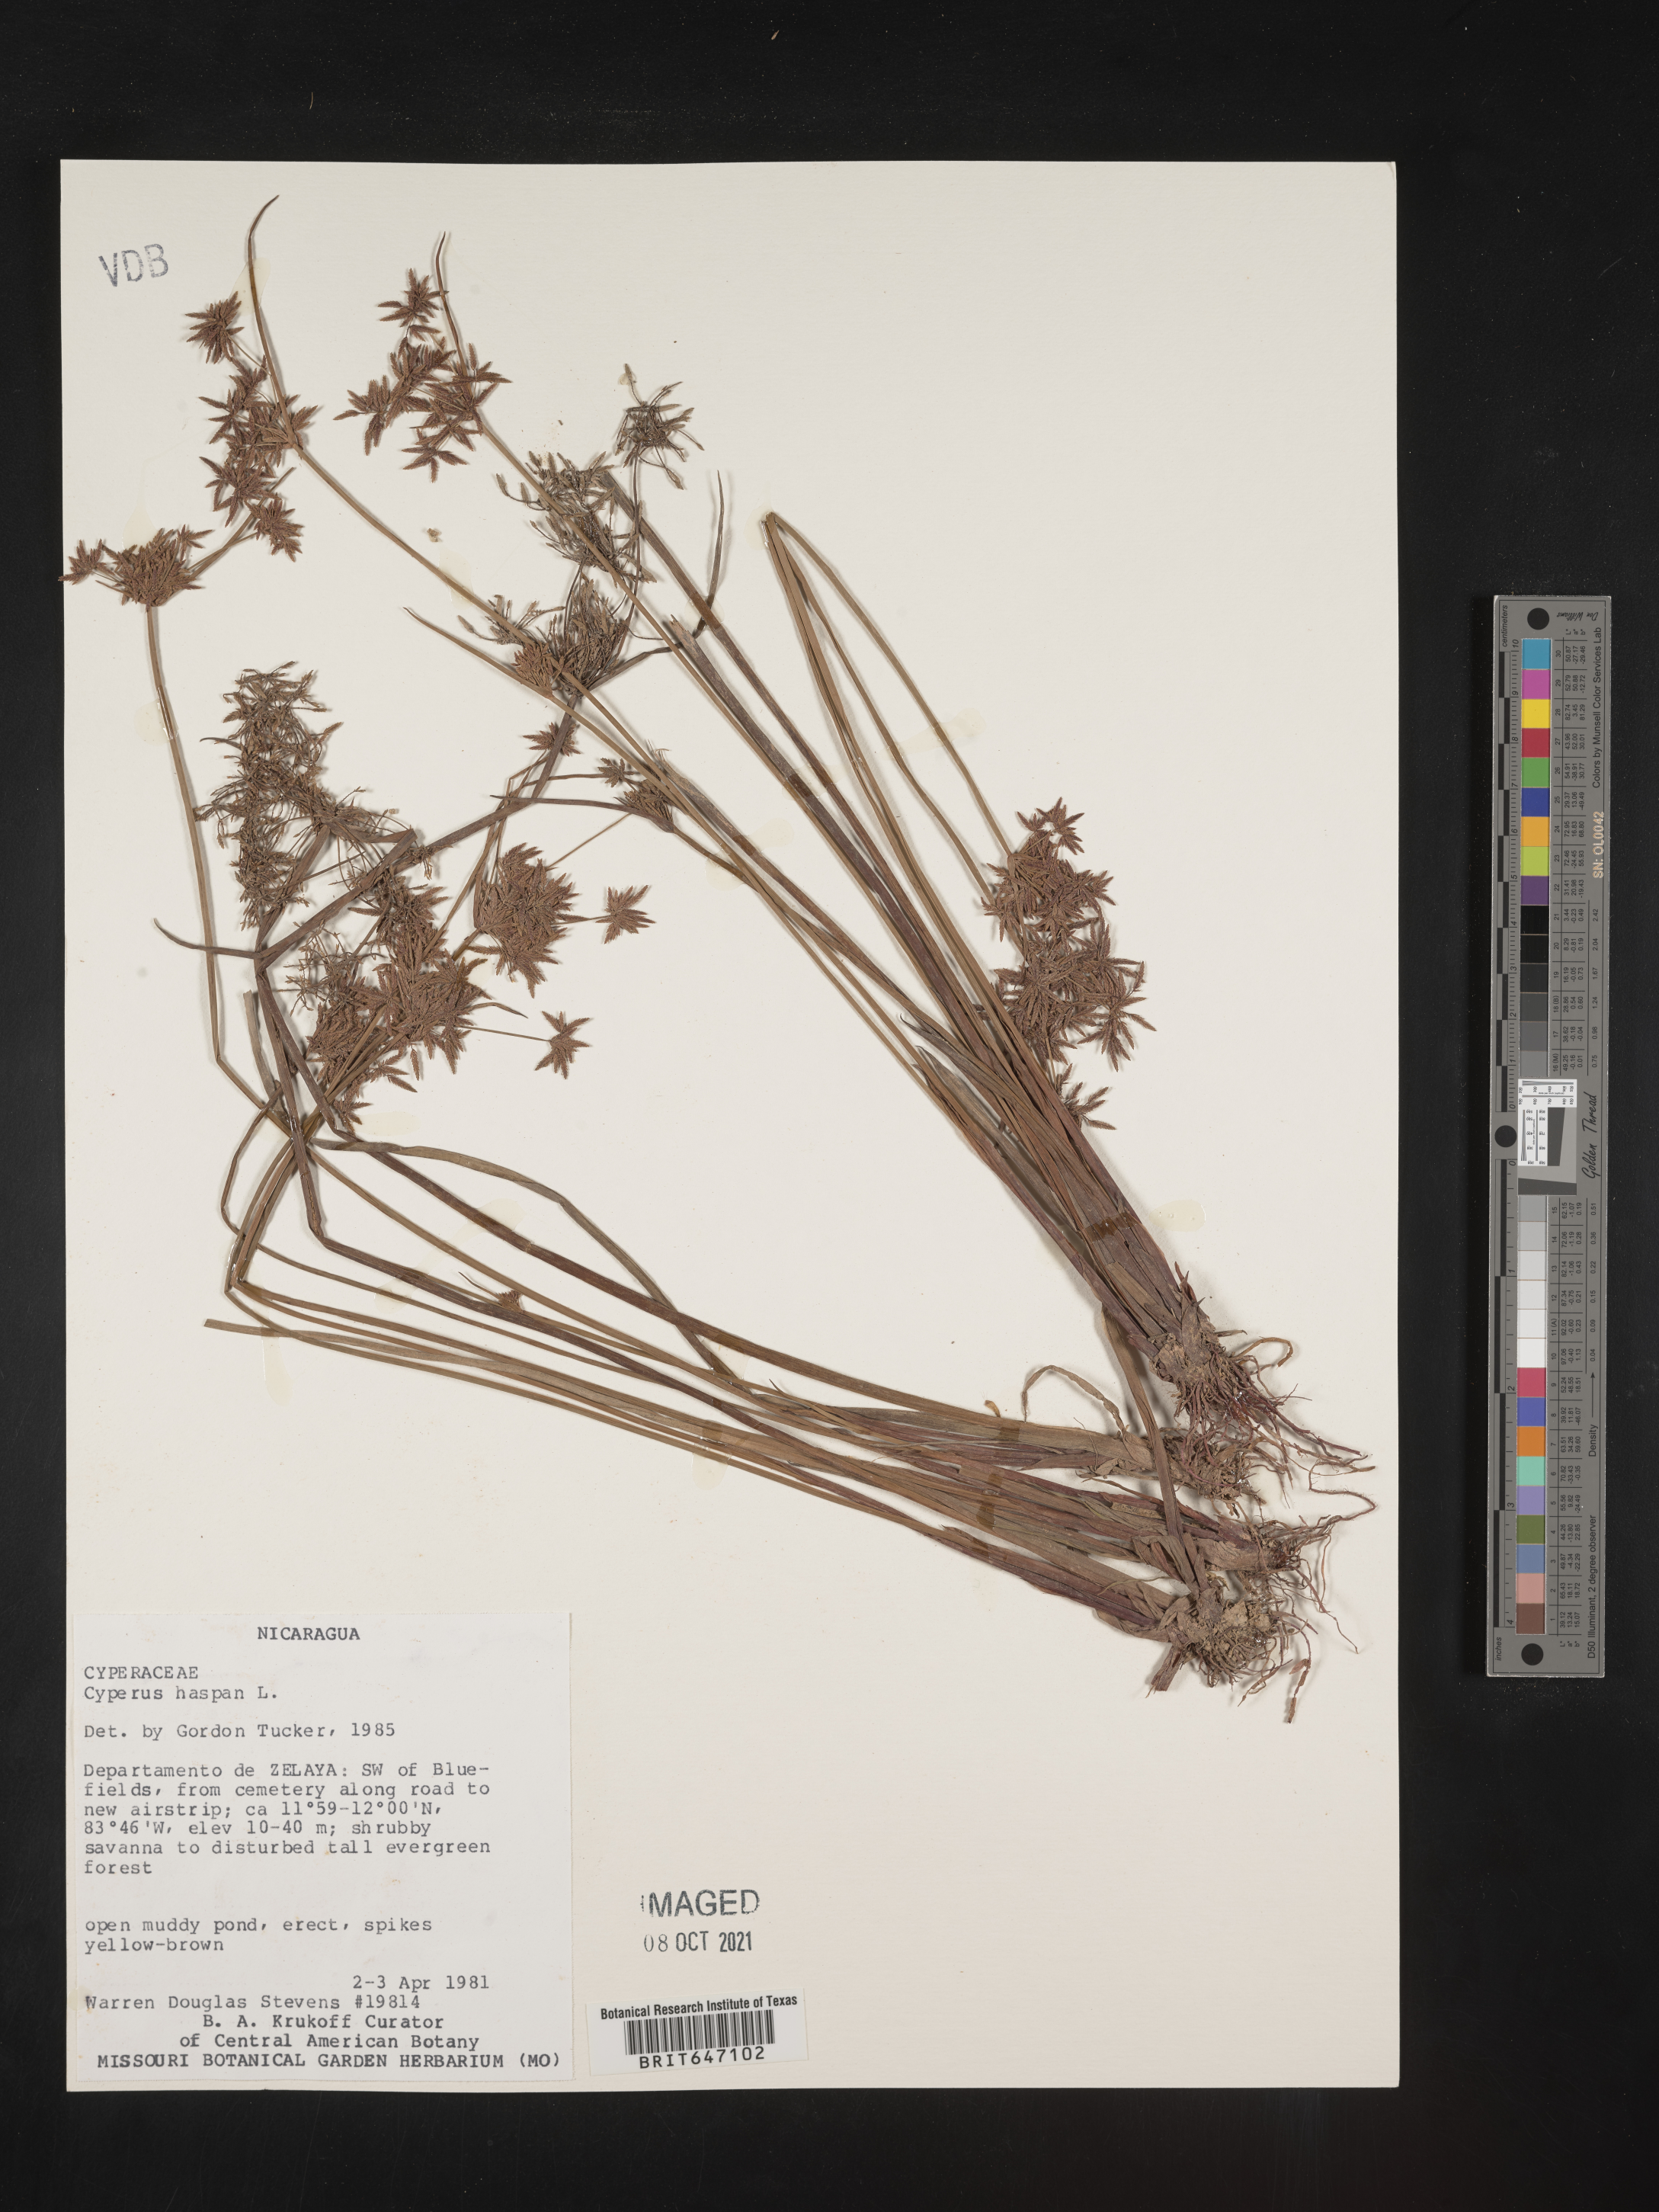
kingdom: Plantae
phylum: Tracheophyta
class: Liliopsida
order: Poales
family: Cyperaceae
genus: Cyperus
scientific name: Cyperus haspan
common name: Haspan flatsedge
